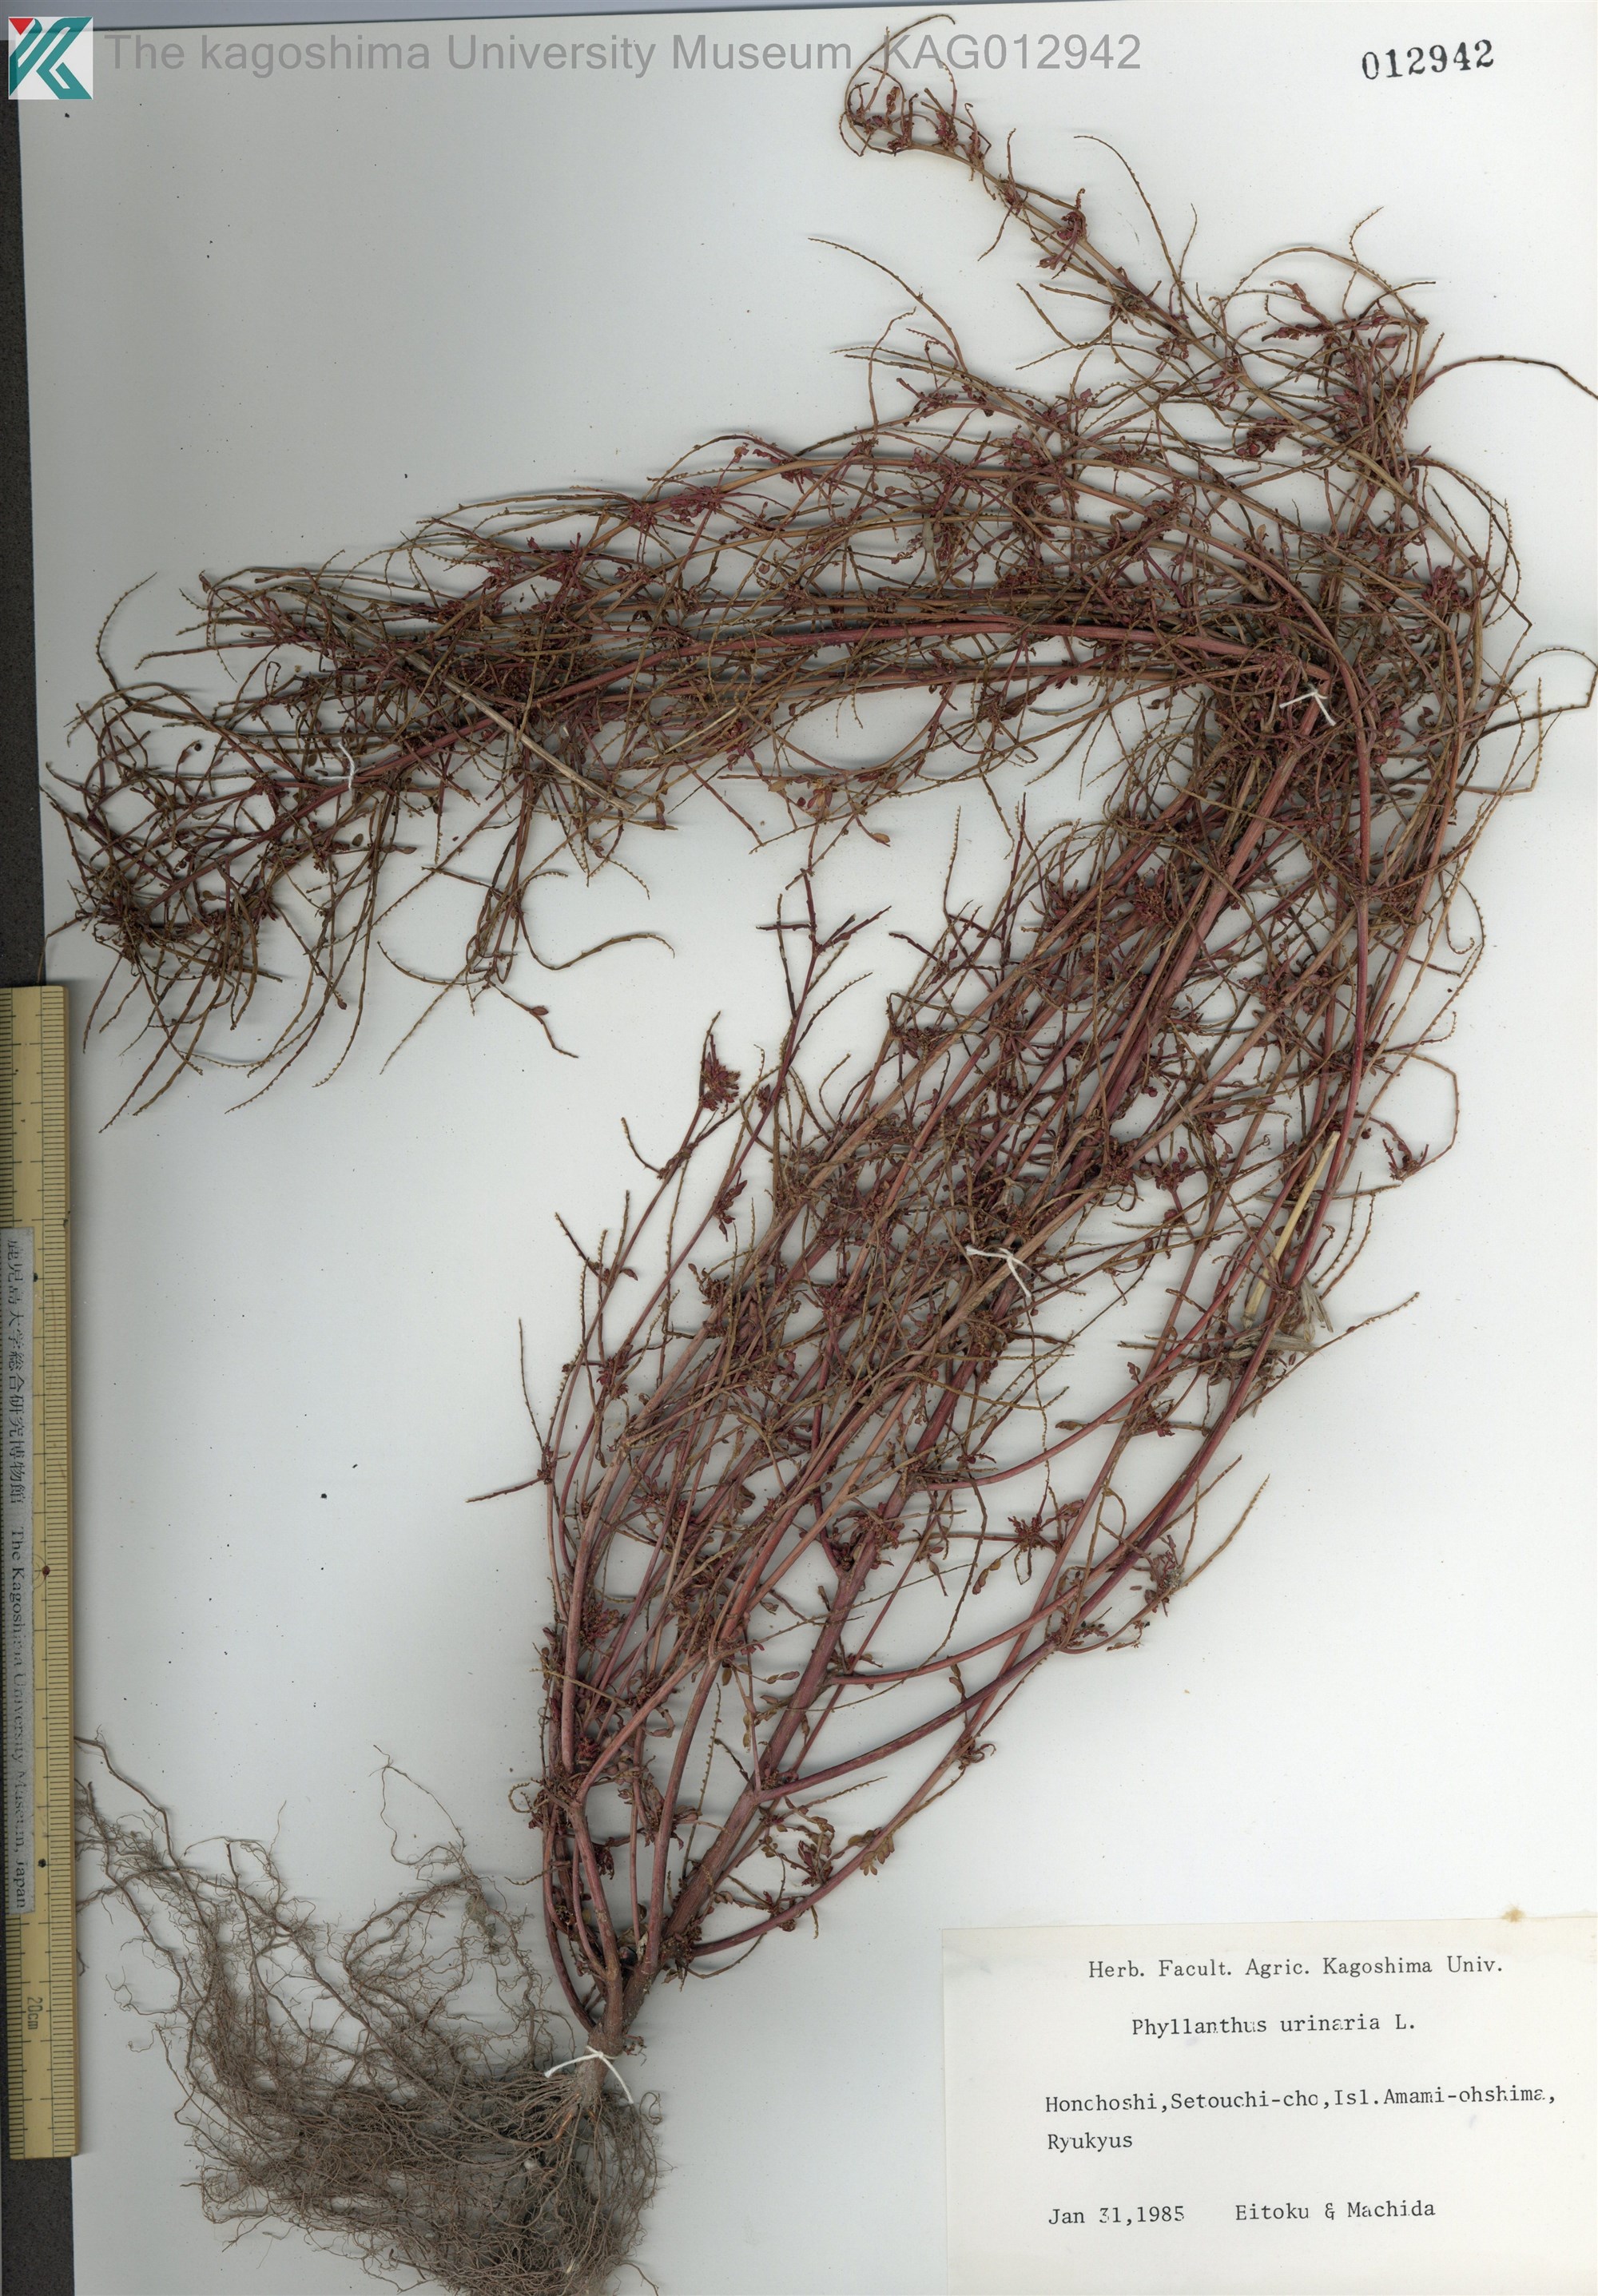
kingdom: Plantae
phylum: Tracheophyta
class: Magnoliopsida
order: Malpighiales
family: Phyllanthaceae
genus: Phyllanthus
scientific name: Phyllanthus urinaria
